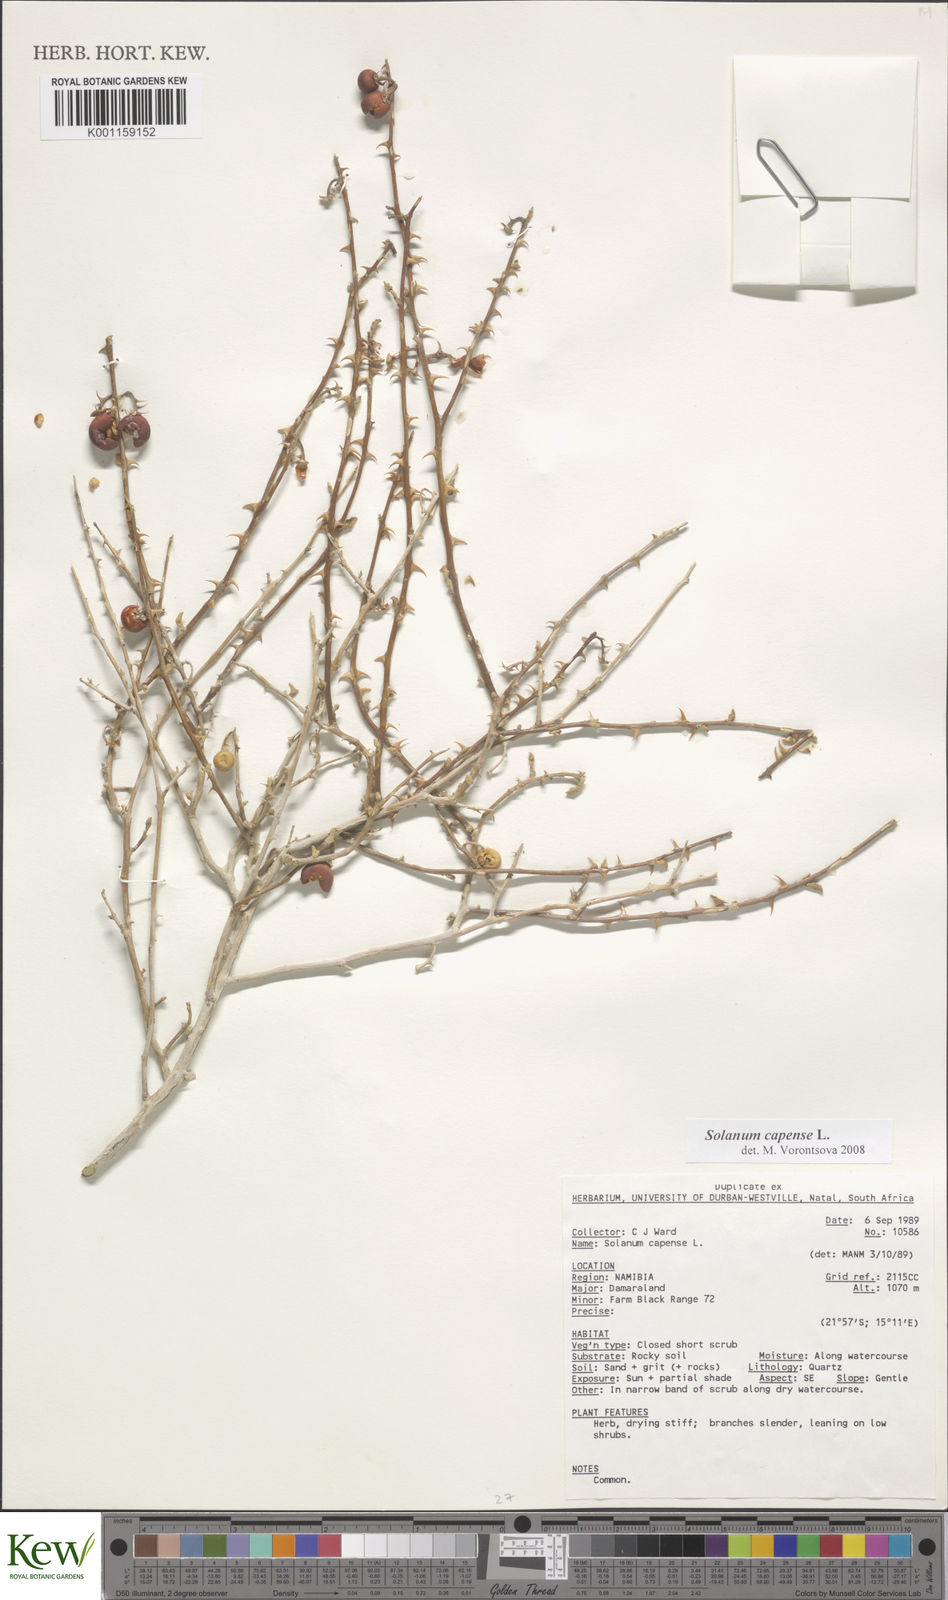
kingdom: Plantae
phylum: Tracheophyta
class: Magnoliopsida
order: Solanales
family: Solanaceae
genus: Solanum
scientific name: Solanum capense
